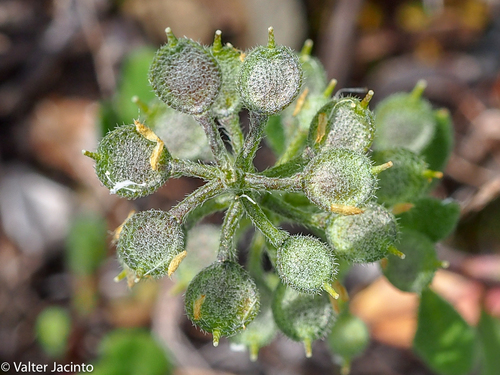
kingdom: Plantae
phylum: Tracheophyta
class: Magnoliopsida
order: Brassicales
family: Brassicaceae
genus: Alyssum
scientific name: Alyssum simplex
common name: Alyssum
